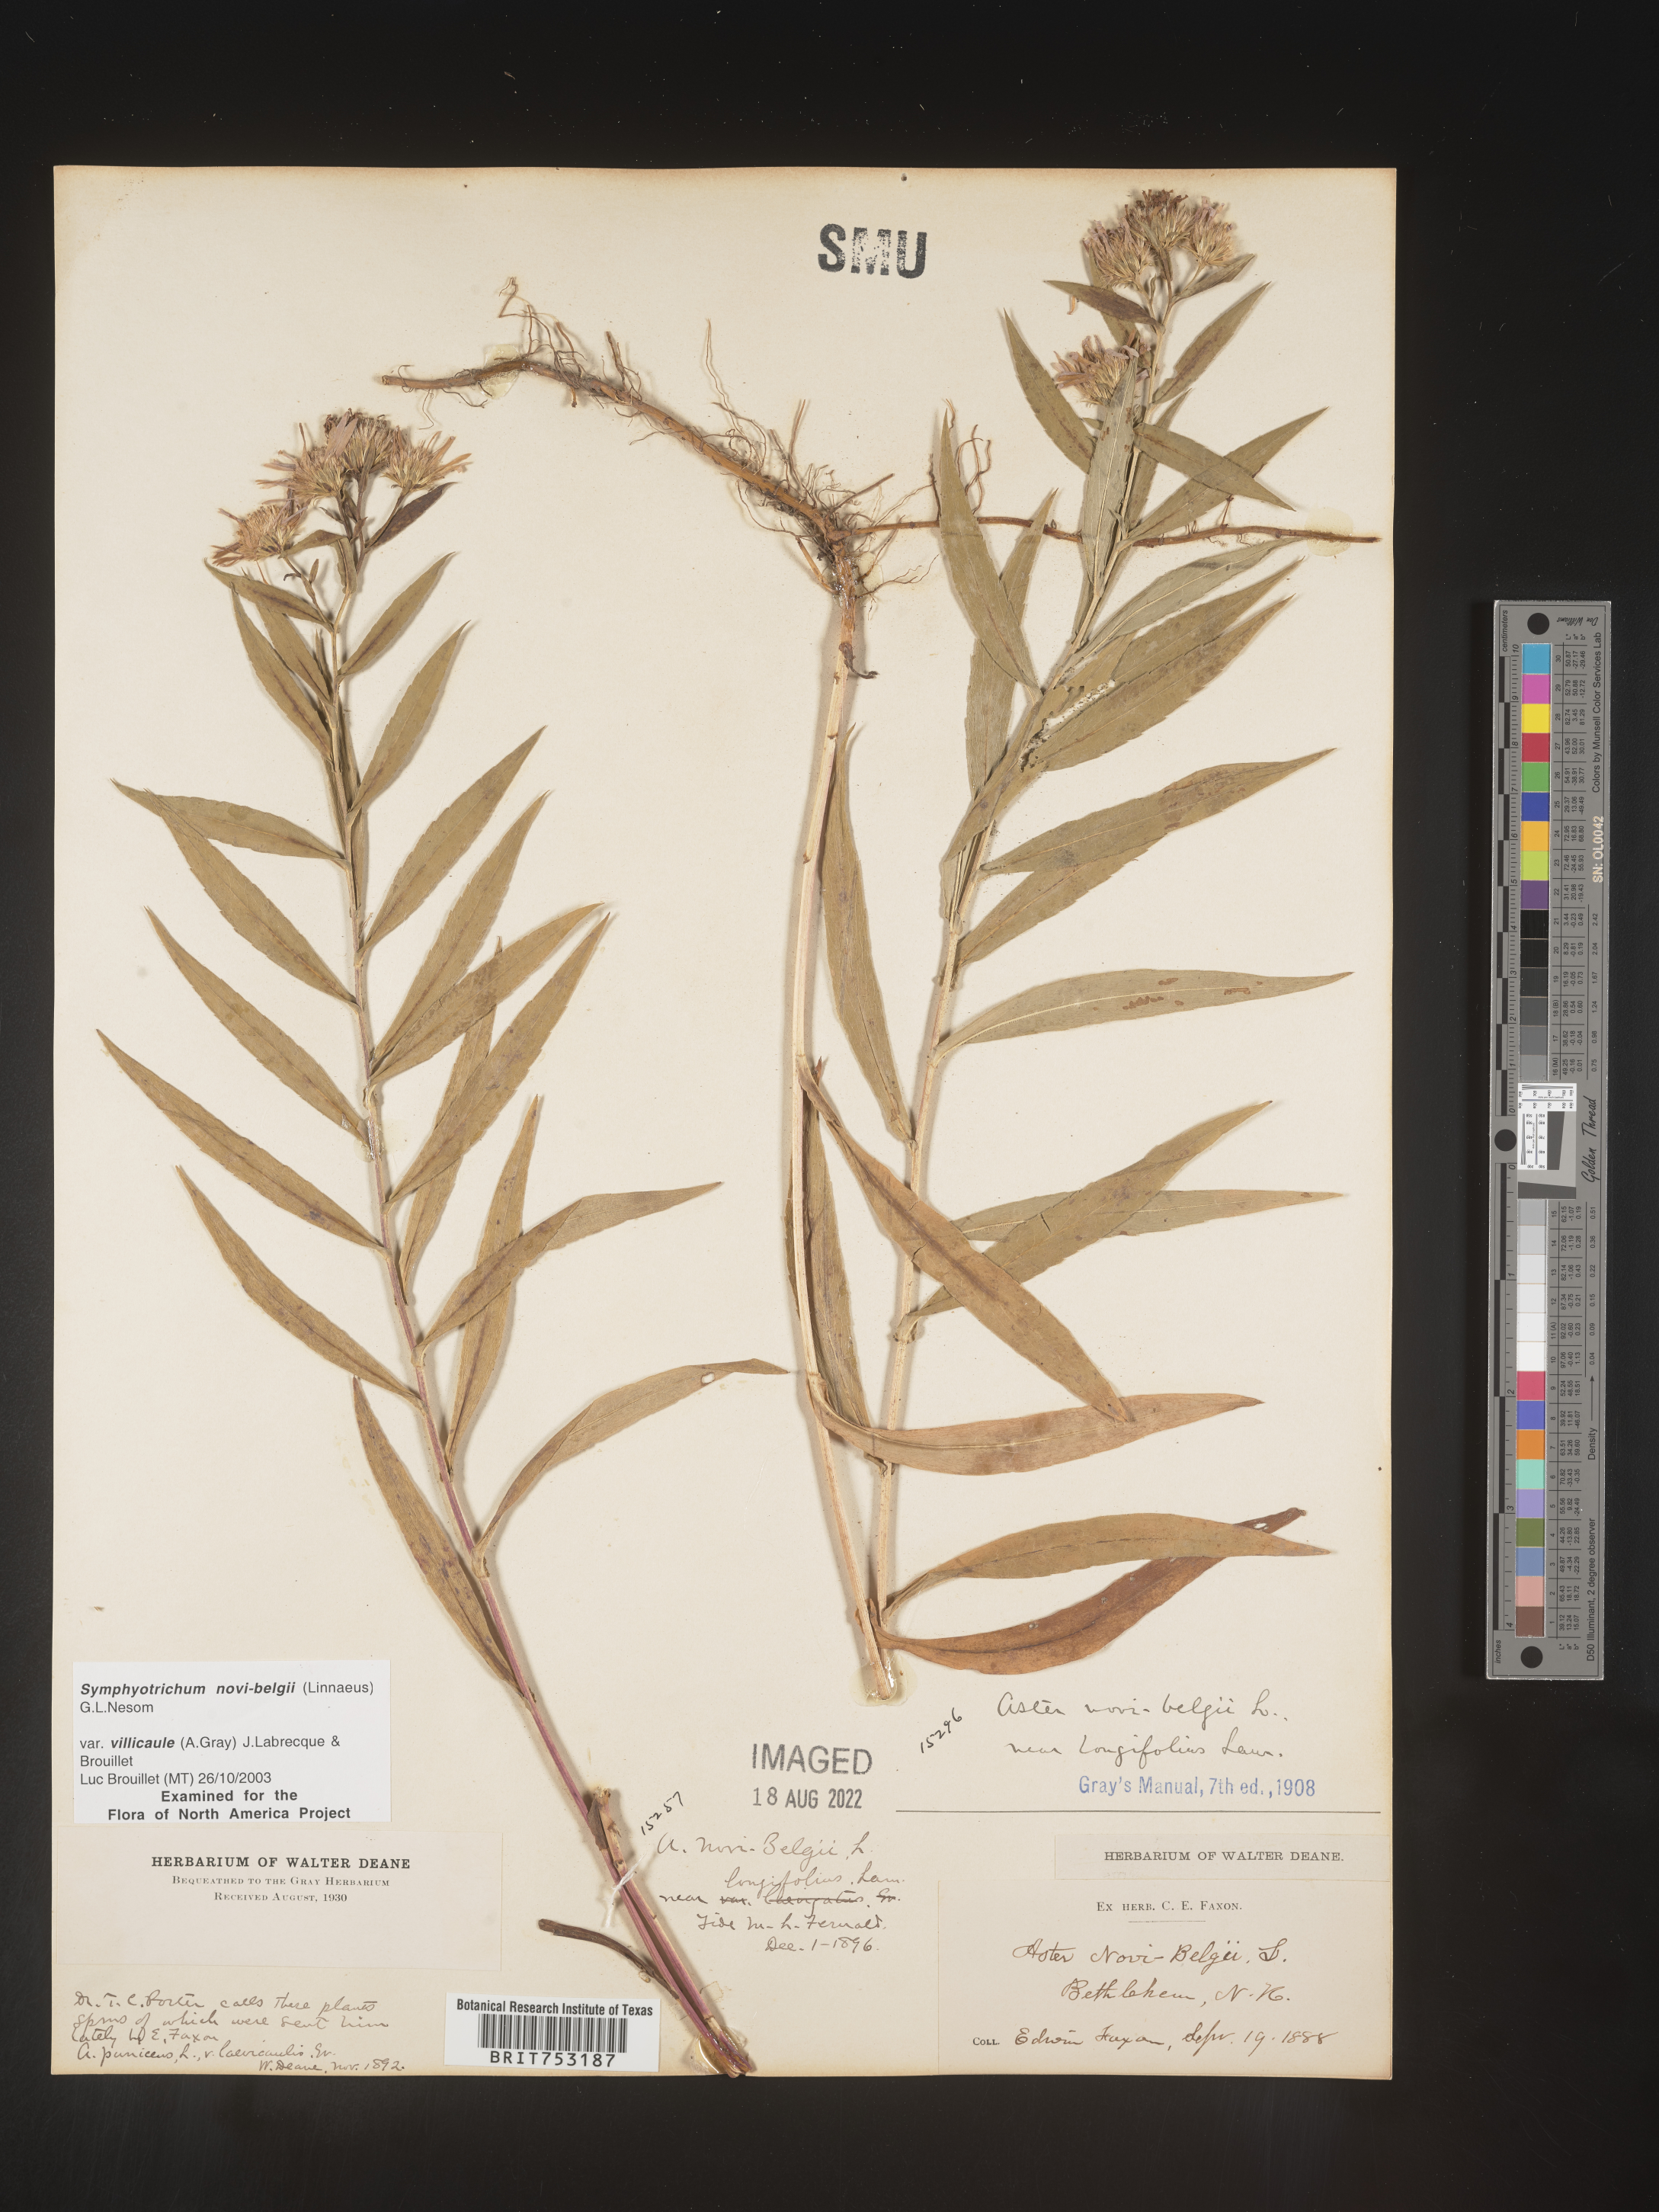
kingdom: Plantae
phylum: Tracheophyta
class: Magnoliopsida
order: Asterales
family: Asteraceae
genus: Symphyotrichum
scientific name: Symphyotrichum novi-belgii
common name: Michaelmas daisy
